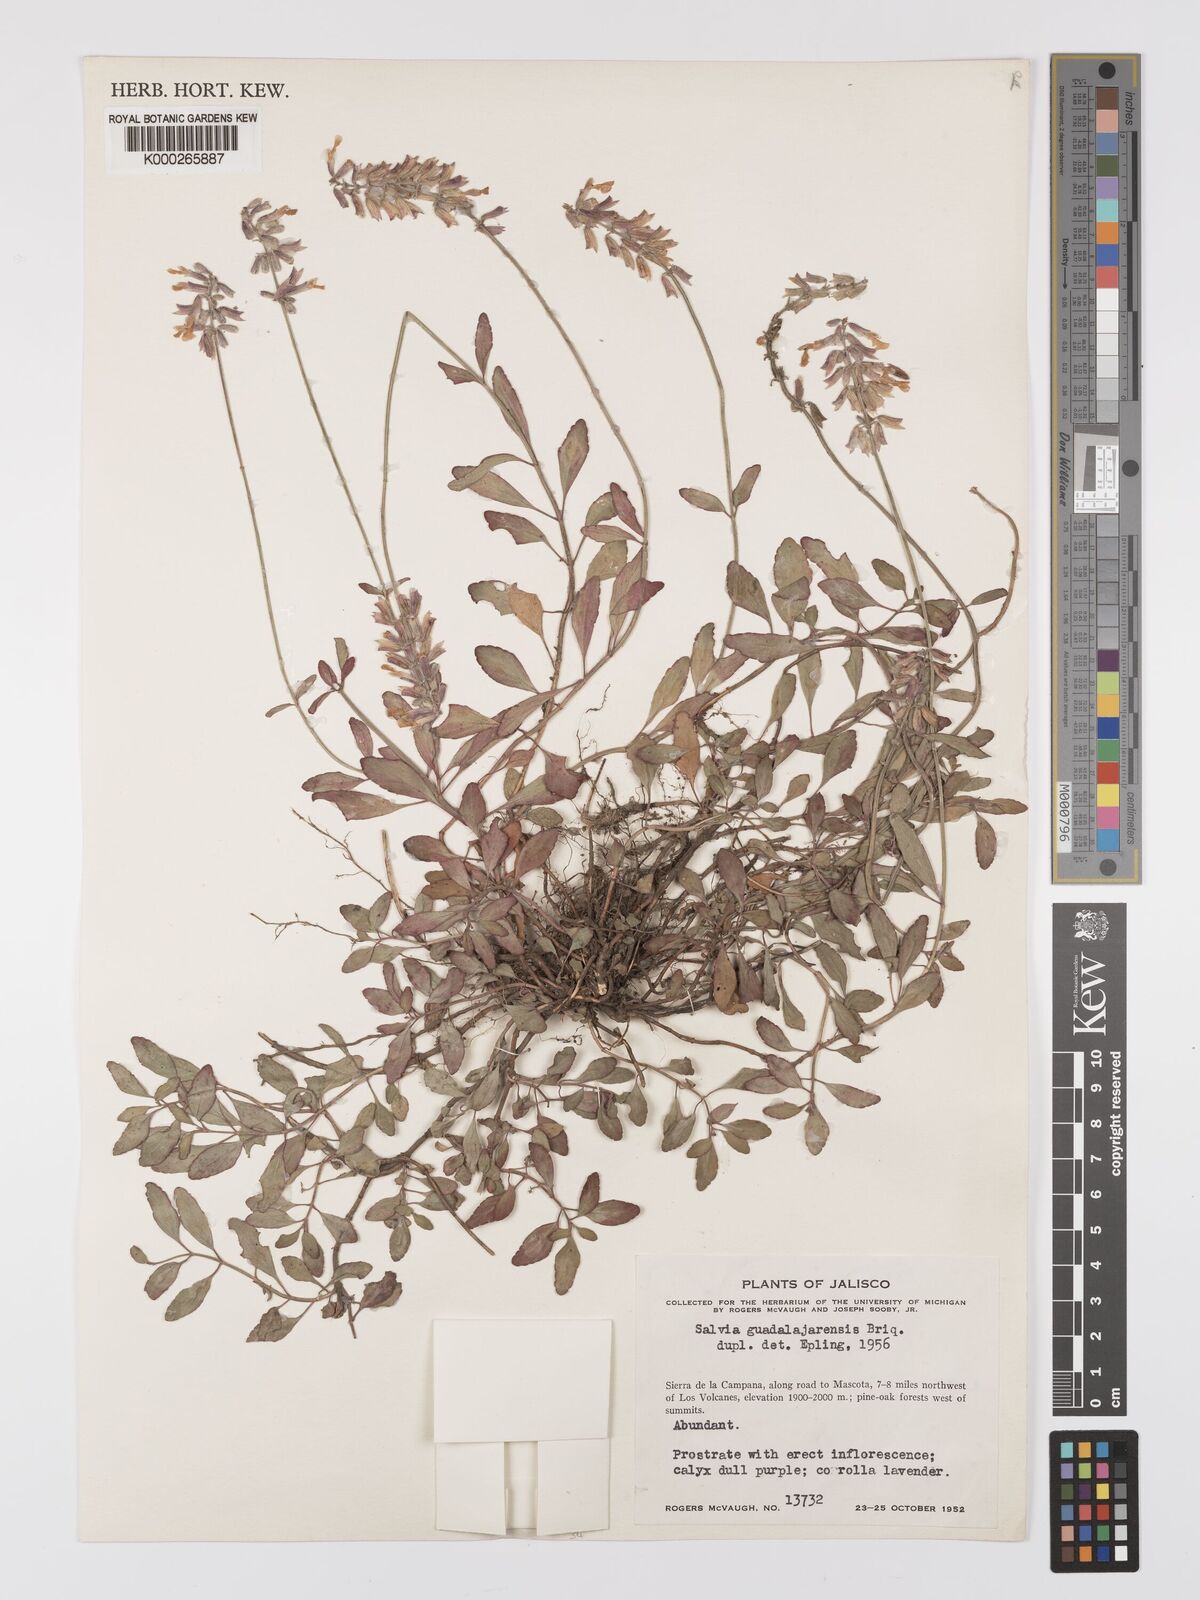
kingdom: Plantae
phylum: Tracheophyta
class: Magnoliopsida
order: Lamiales
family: Lamiaceae
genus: Salvia
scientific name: Salvia guadalajarensis
